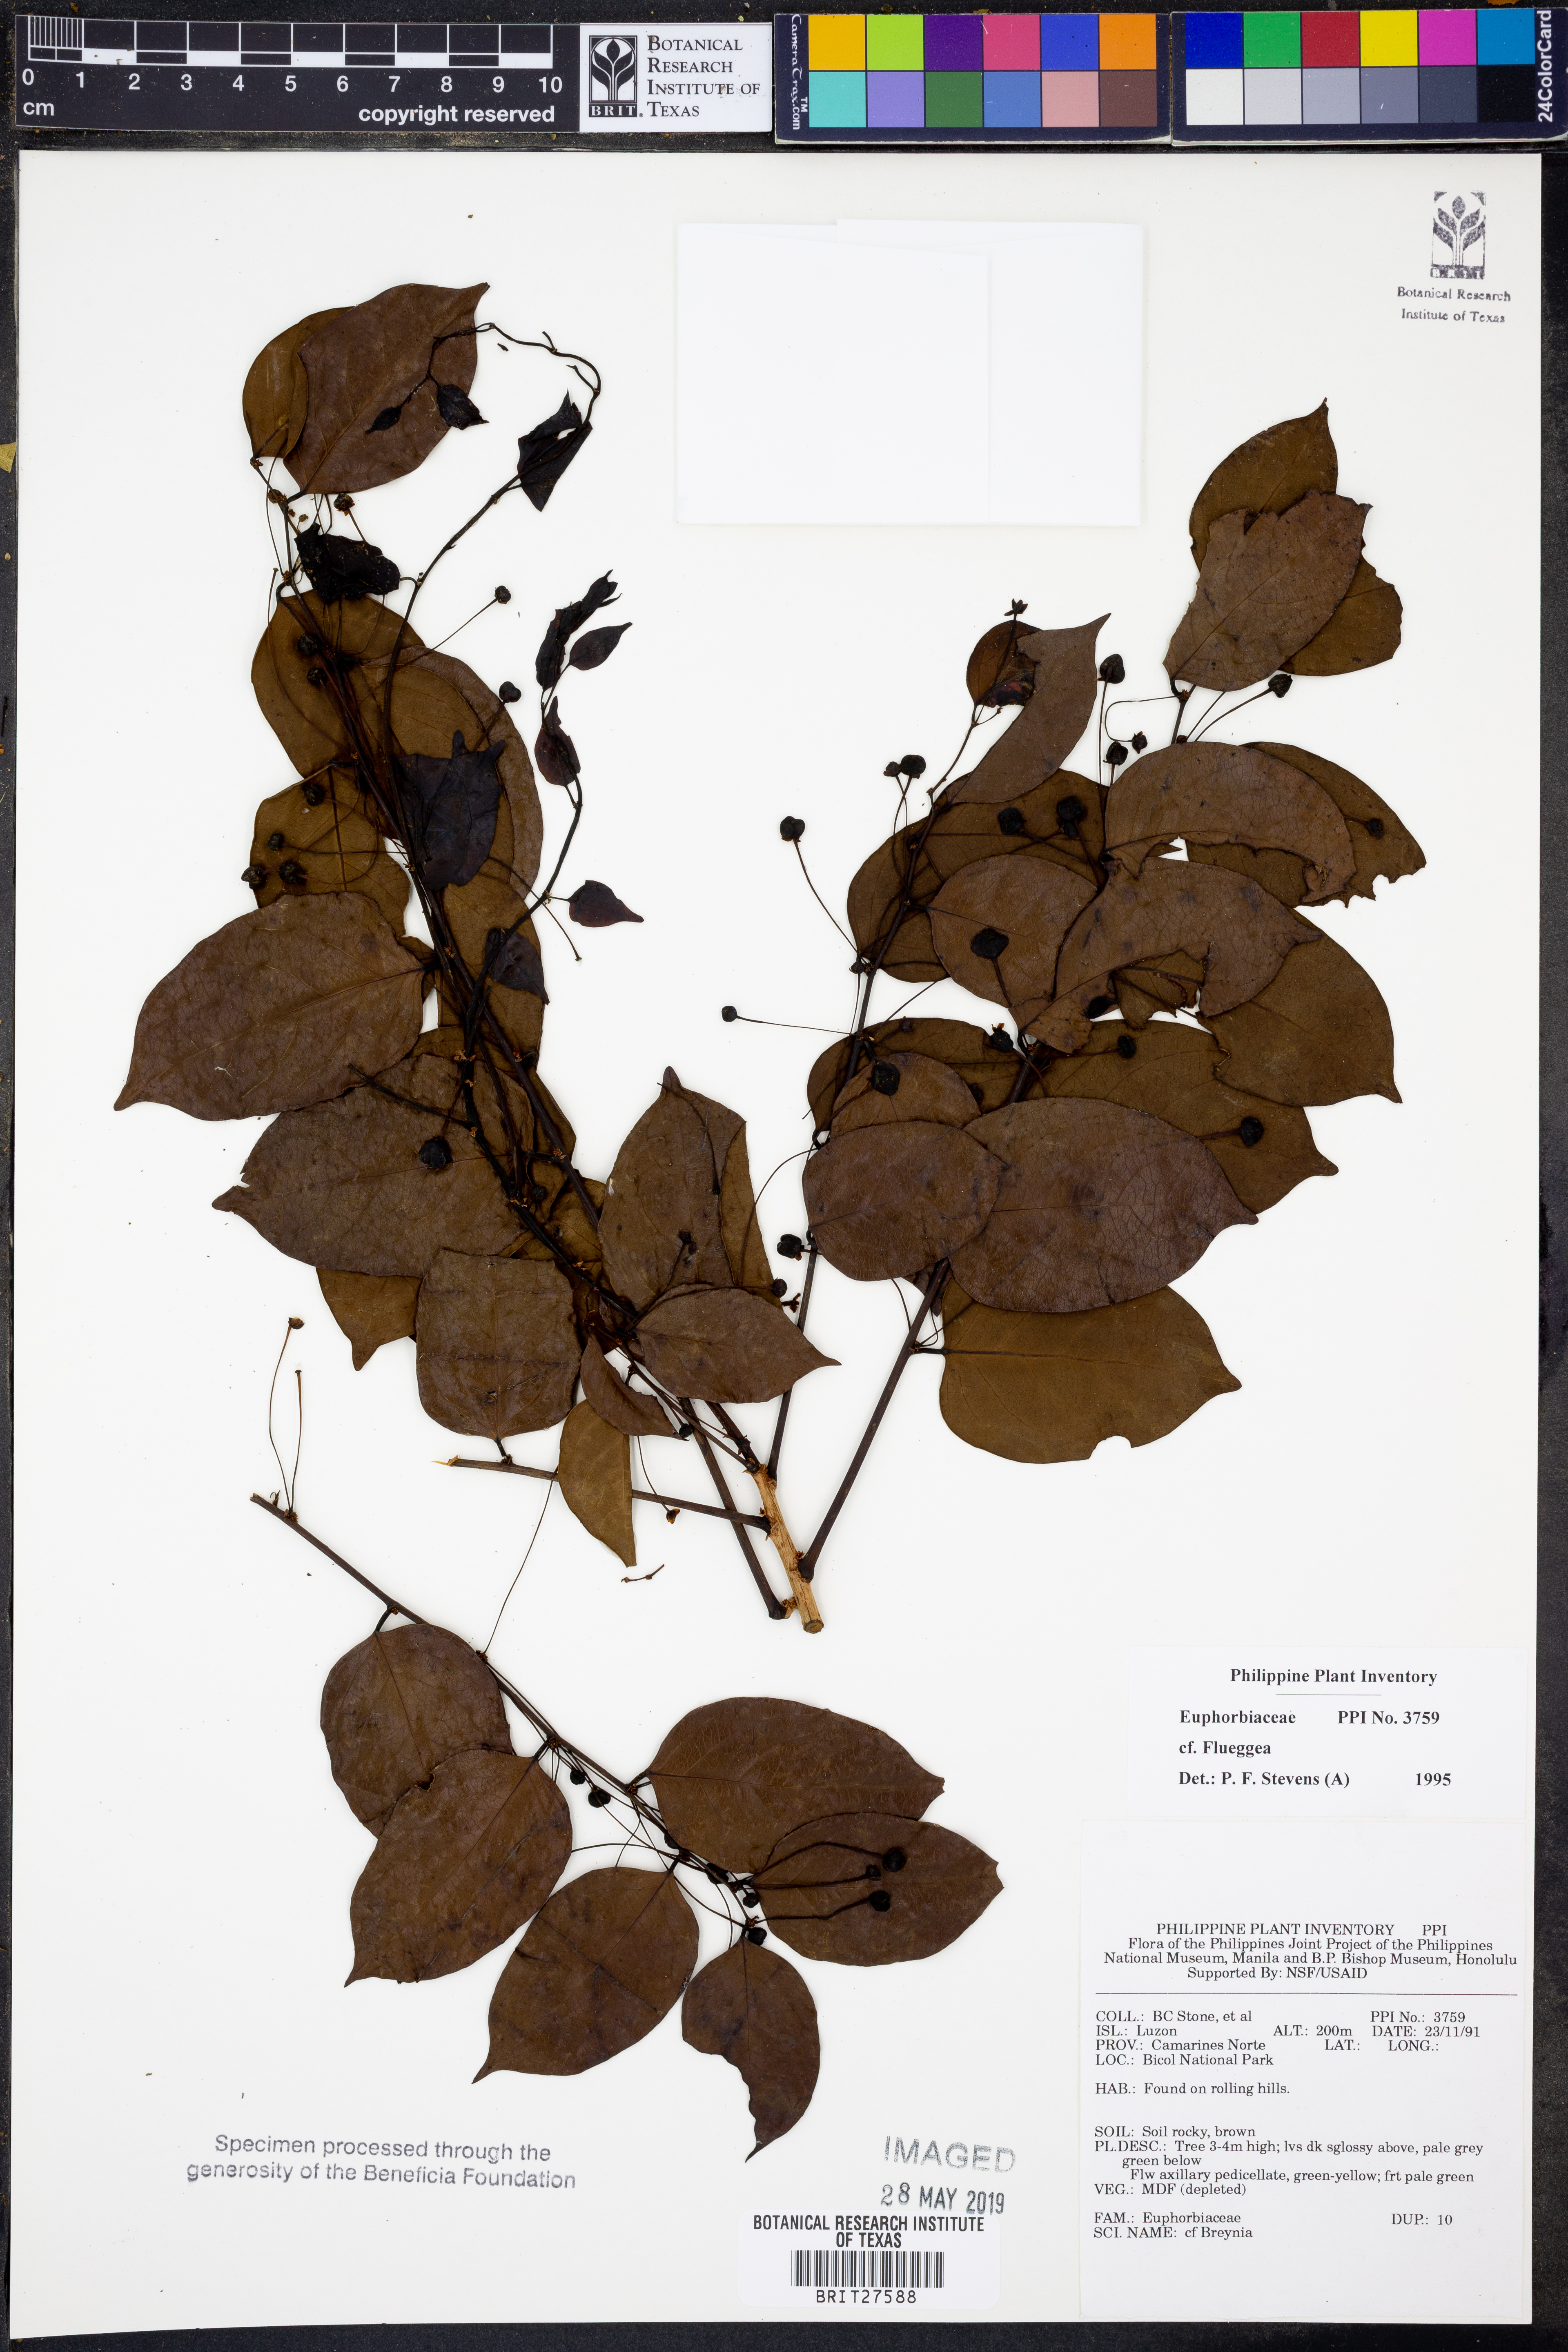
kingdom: Plantae
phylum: Tracheophyta
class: Magnoliopsida
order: Malpighiales
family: Phyllanthaceae
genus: Flueggea
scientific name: Flueggea
